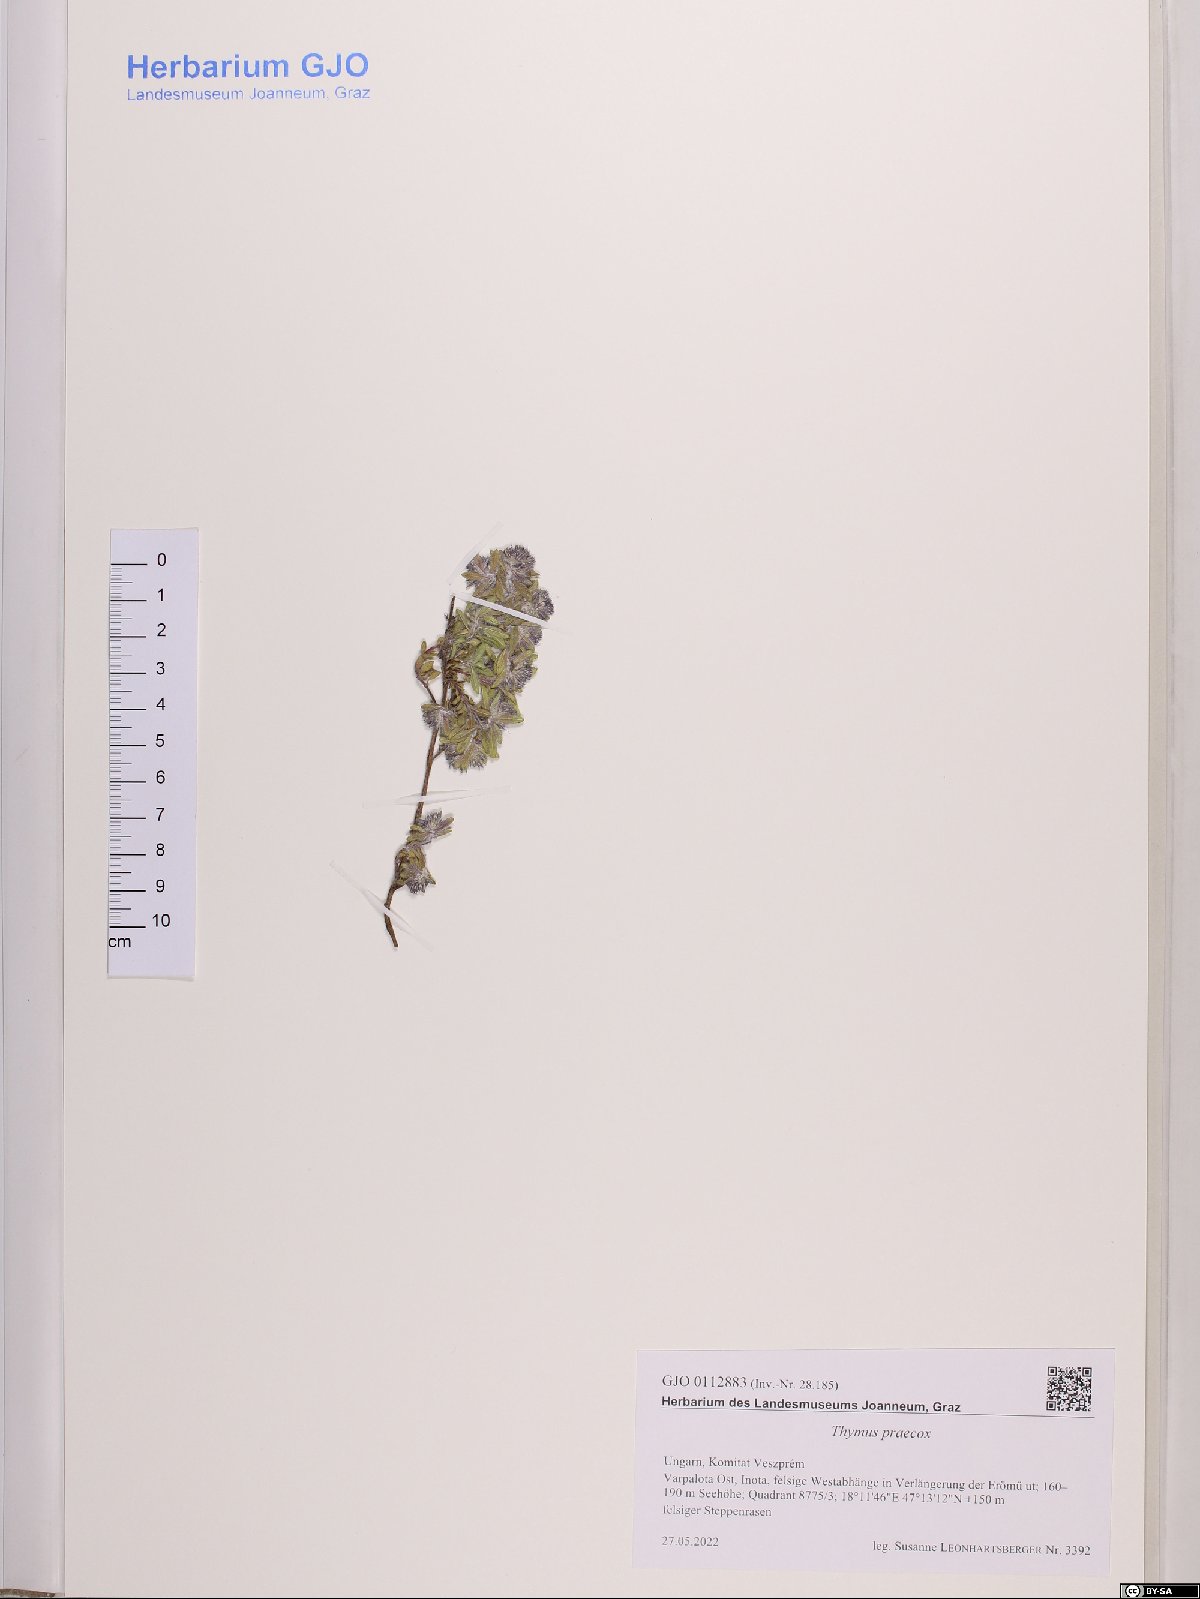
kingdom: Plantae
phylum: Tracheophyta
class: Magnoliopsida
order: Lamiales
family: Lamiaceae
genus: Thymus
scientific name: Thymus praecox
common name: Wild thyme
